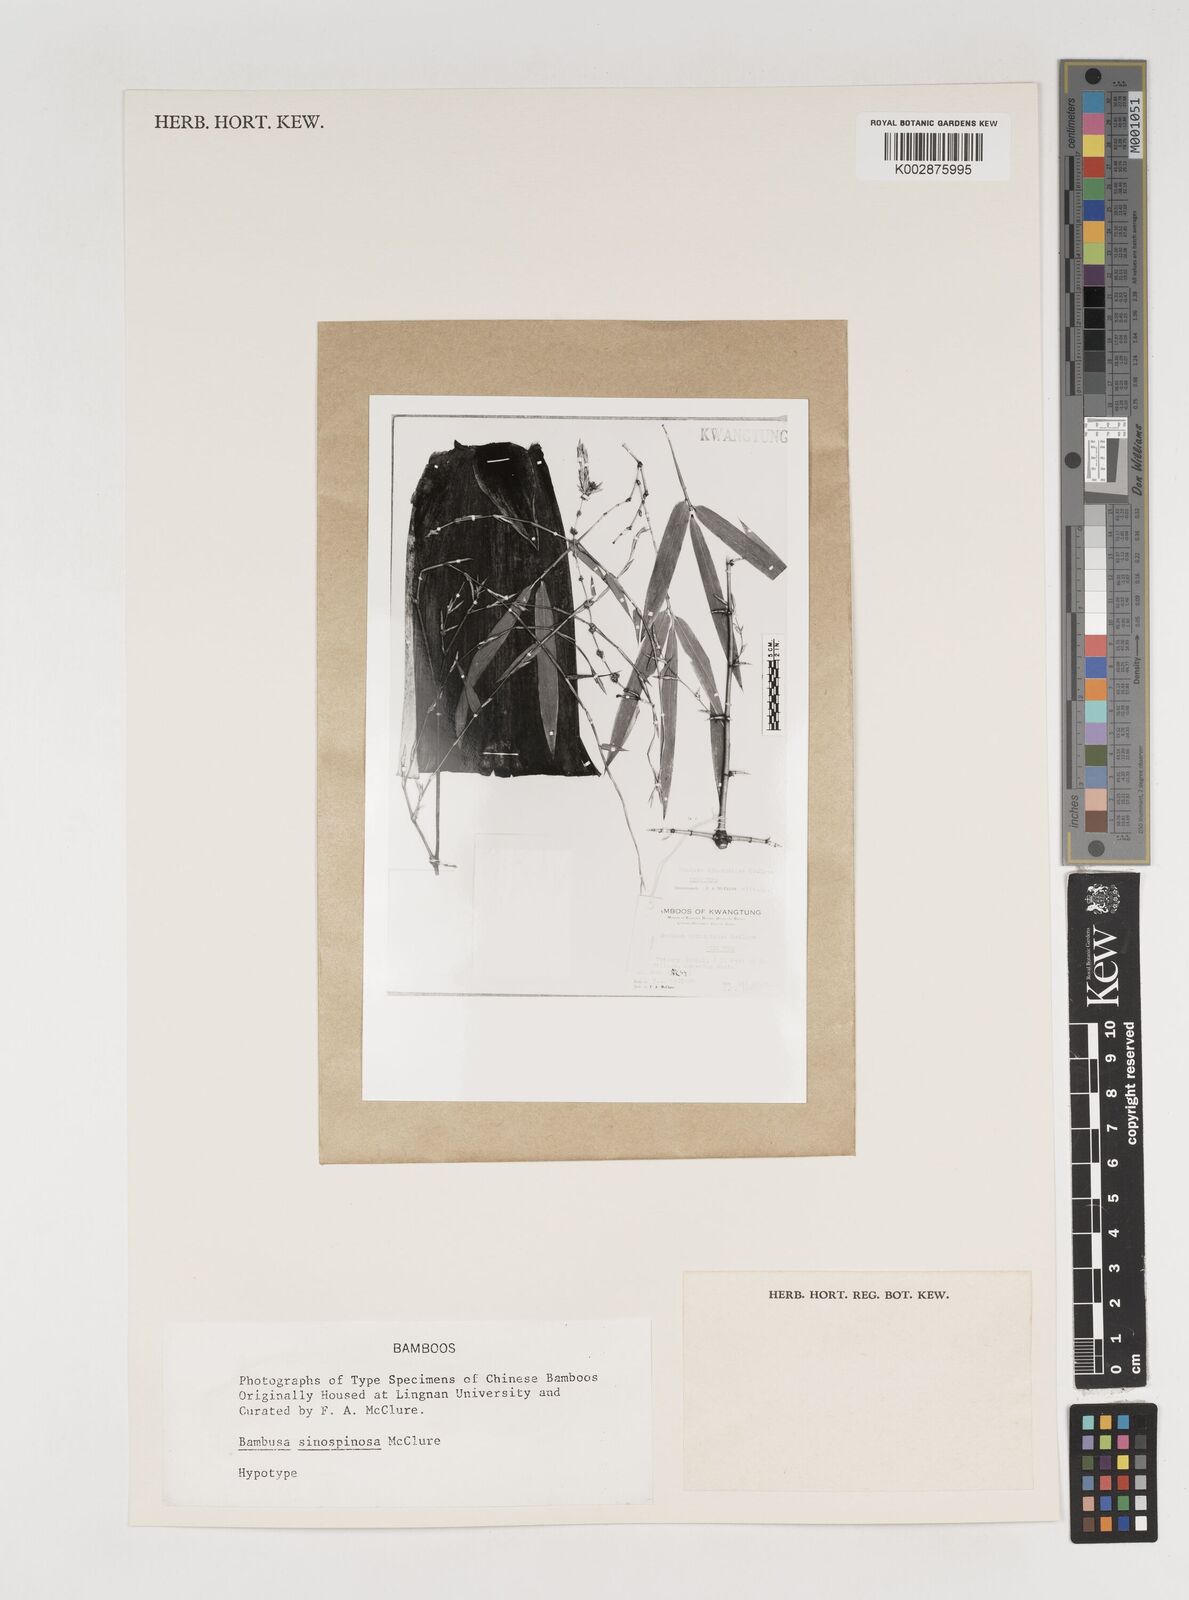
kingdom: Plantae
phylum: Tracheophyta
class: Liliopsida
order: Poales
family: Poaceae
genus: Bambusa
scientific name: Bambusa sinospinosa
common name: Spiny bamboo
